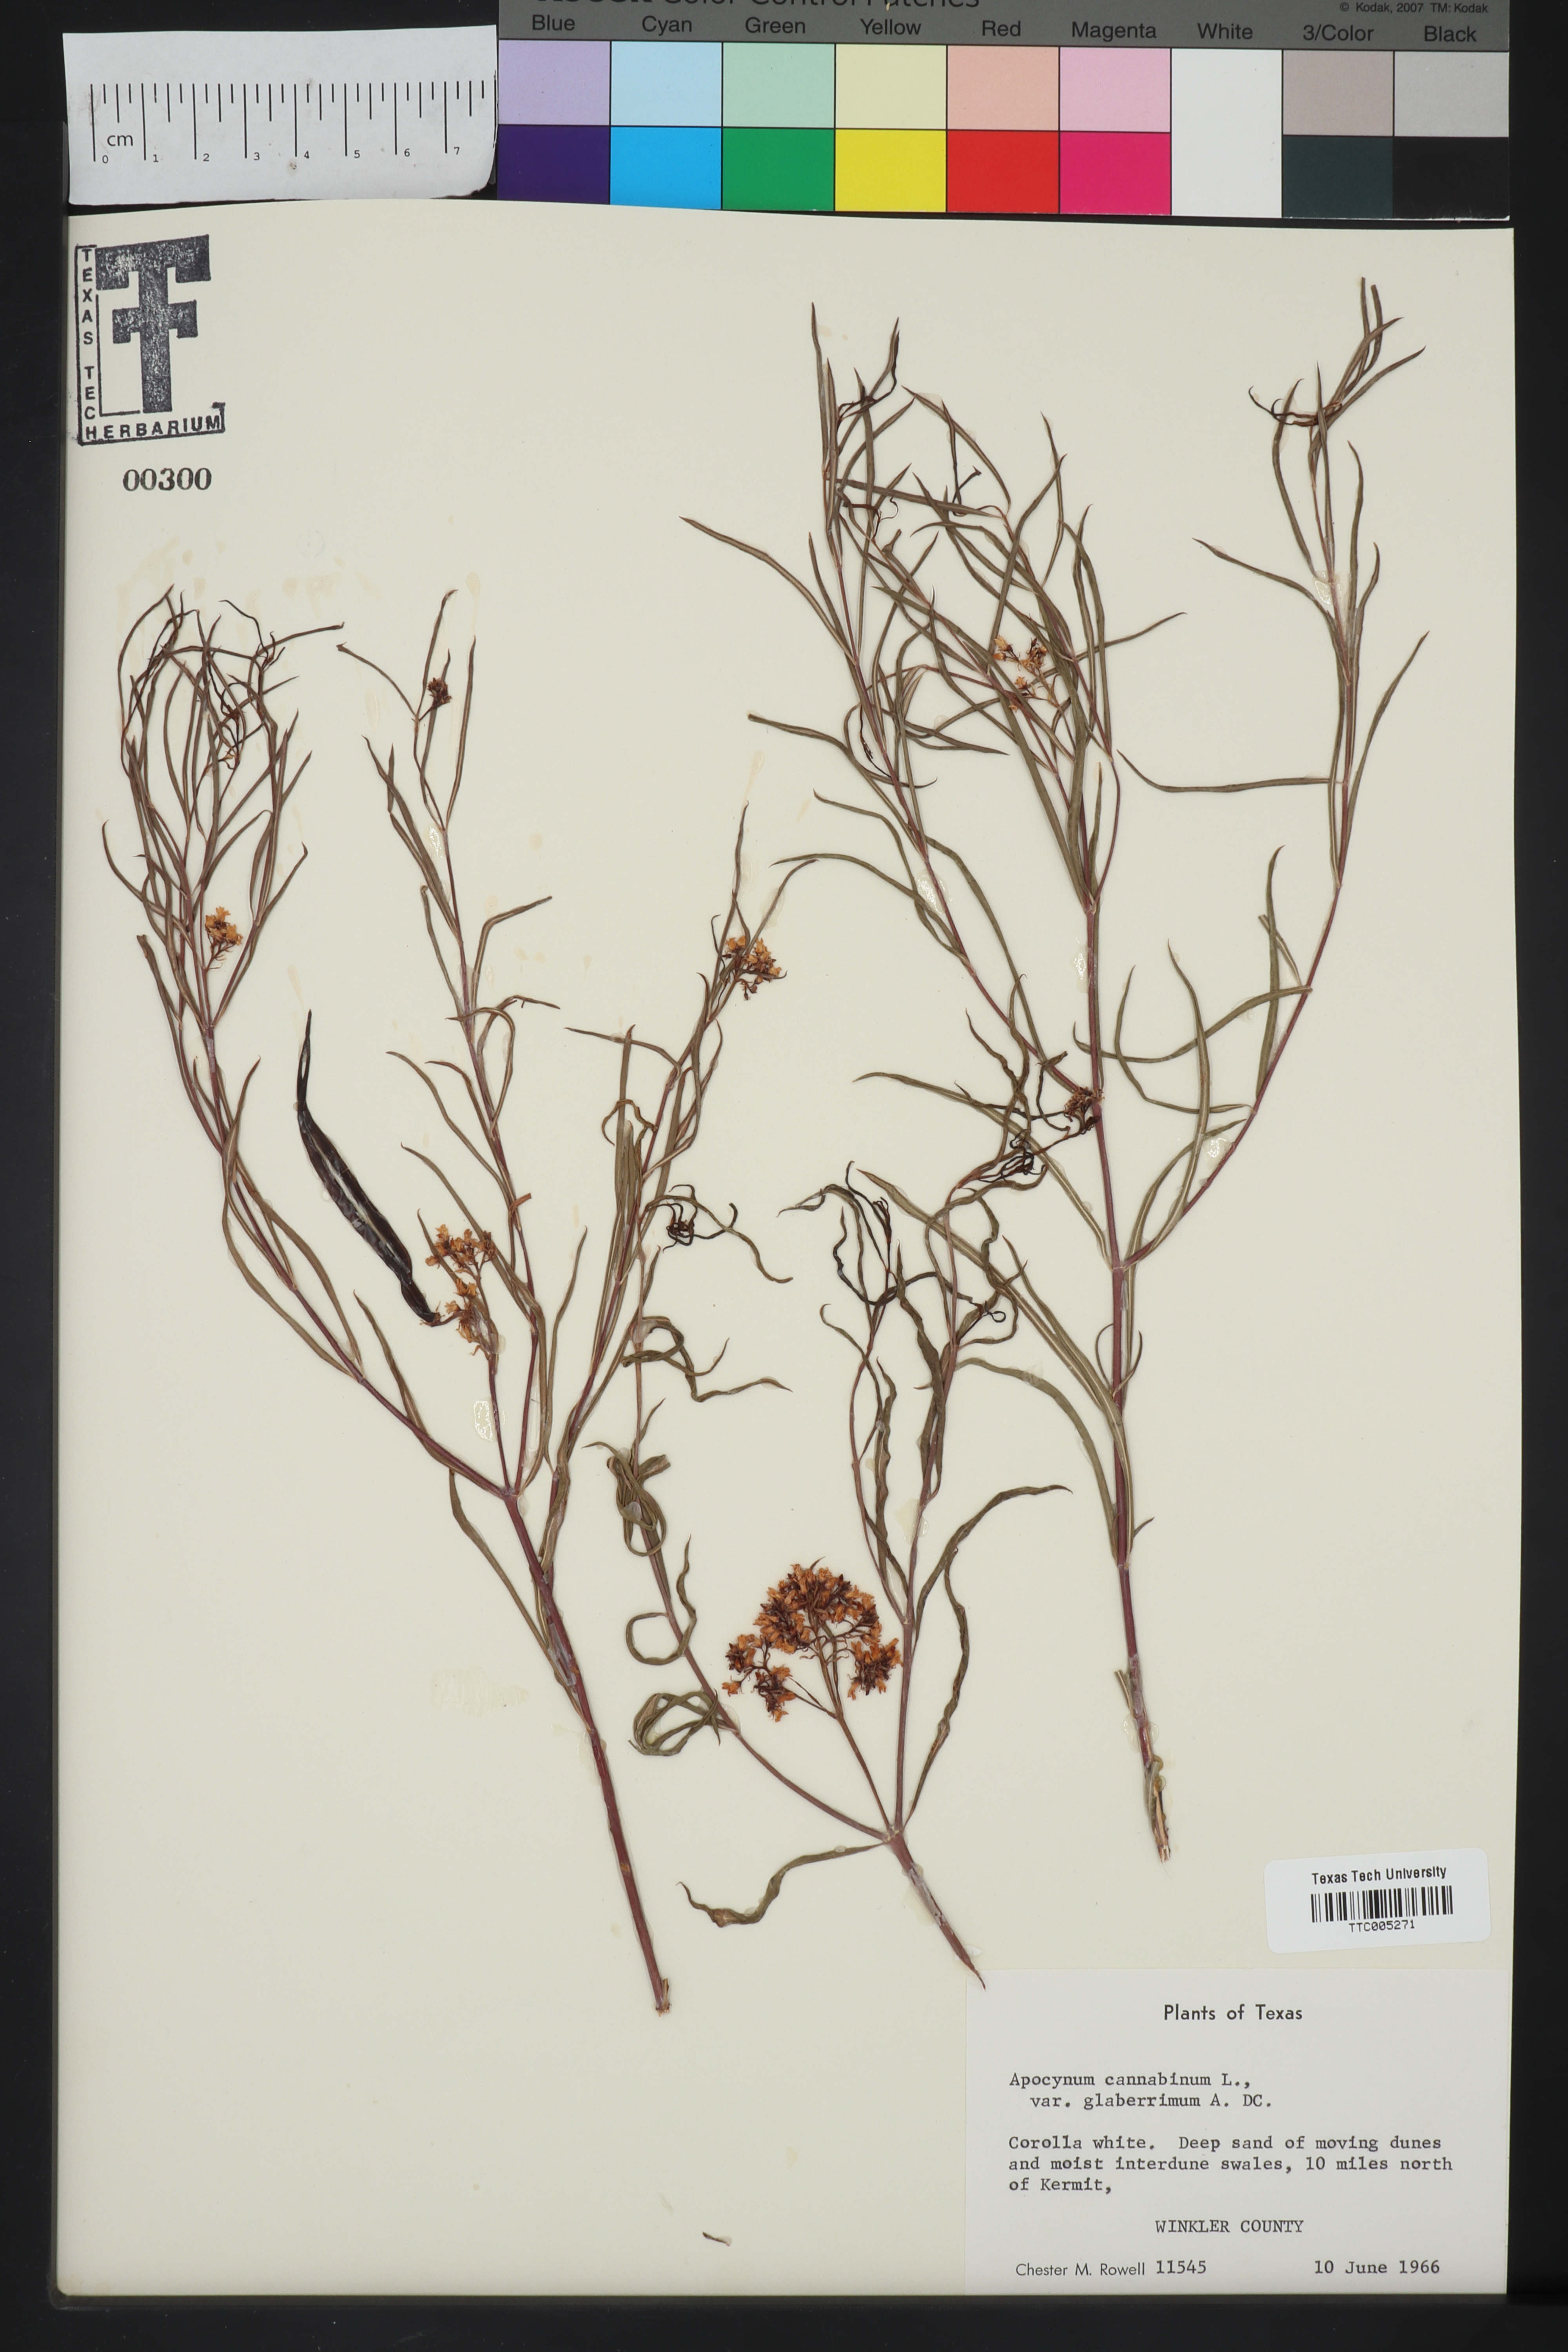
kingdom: Plantae
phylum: Tracheophyta
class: Magnoliopsida
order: Gentianales
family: Apocynaceae
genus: Apocynum
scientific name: Apocynum cannabinum
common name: Hemp dogbane
